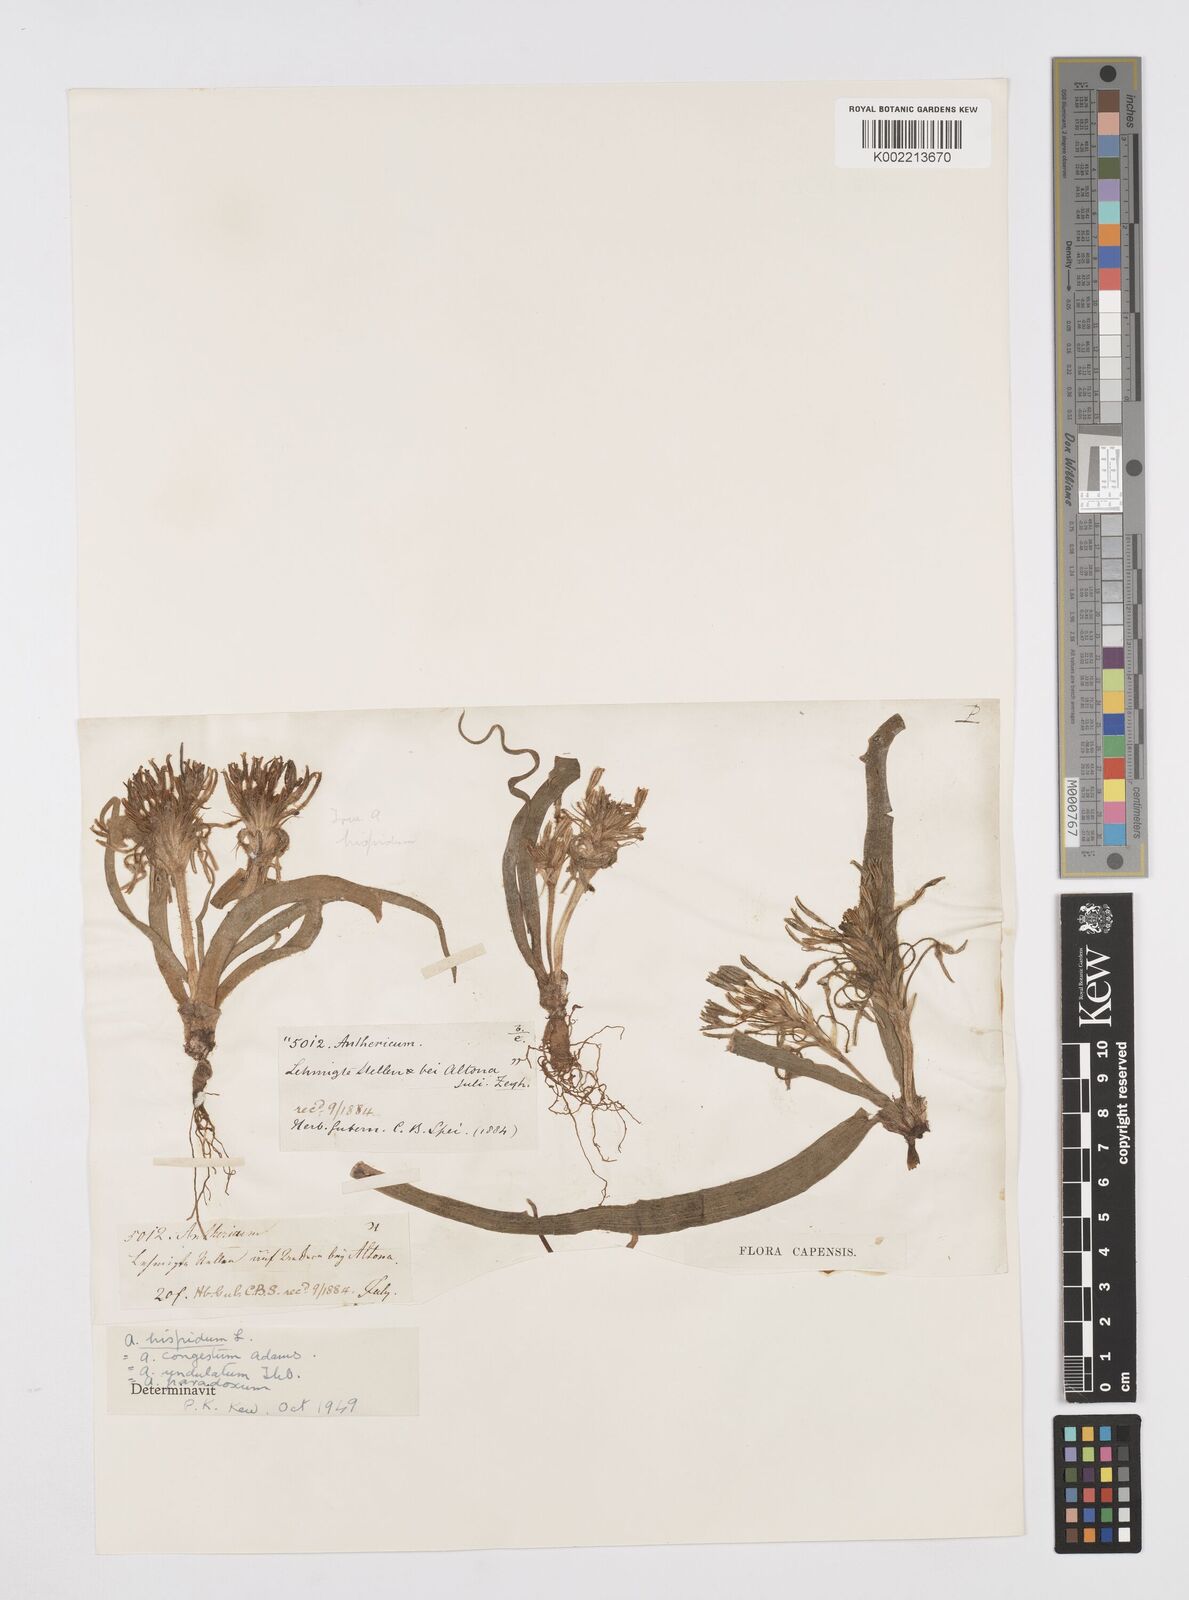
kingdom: Plantae
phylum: Tracheophyta
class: Liliopsida
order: Asparagales
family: Asphodelaceae
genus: Trachyandra
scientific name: Trachyandra hispida
